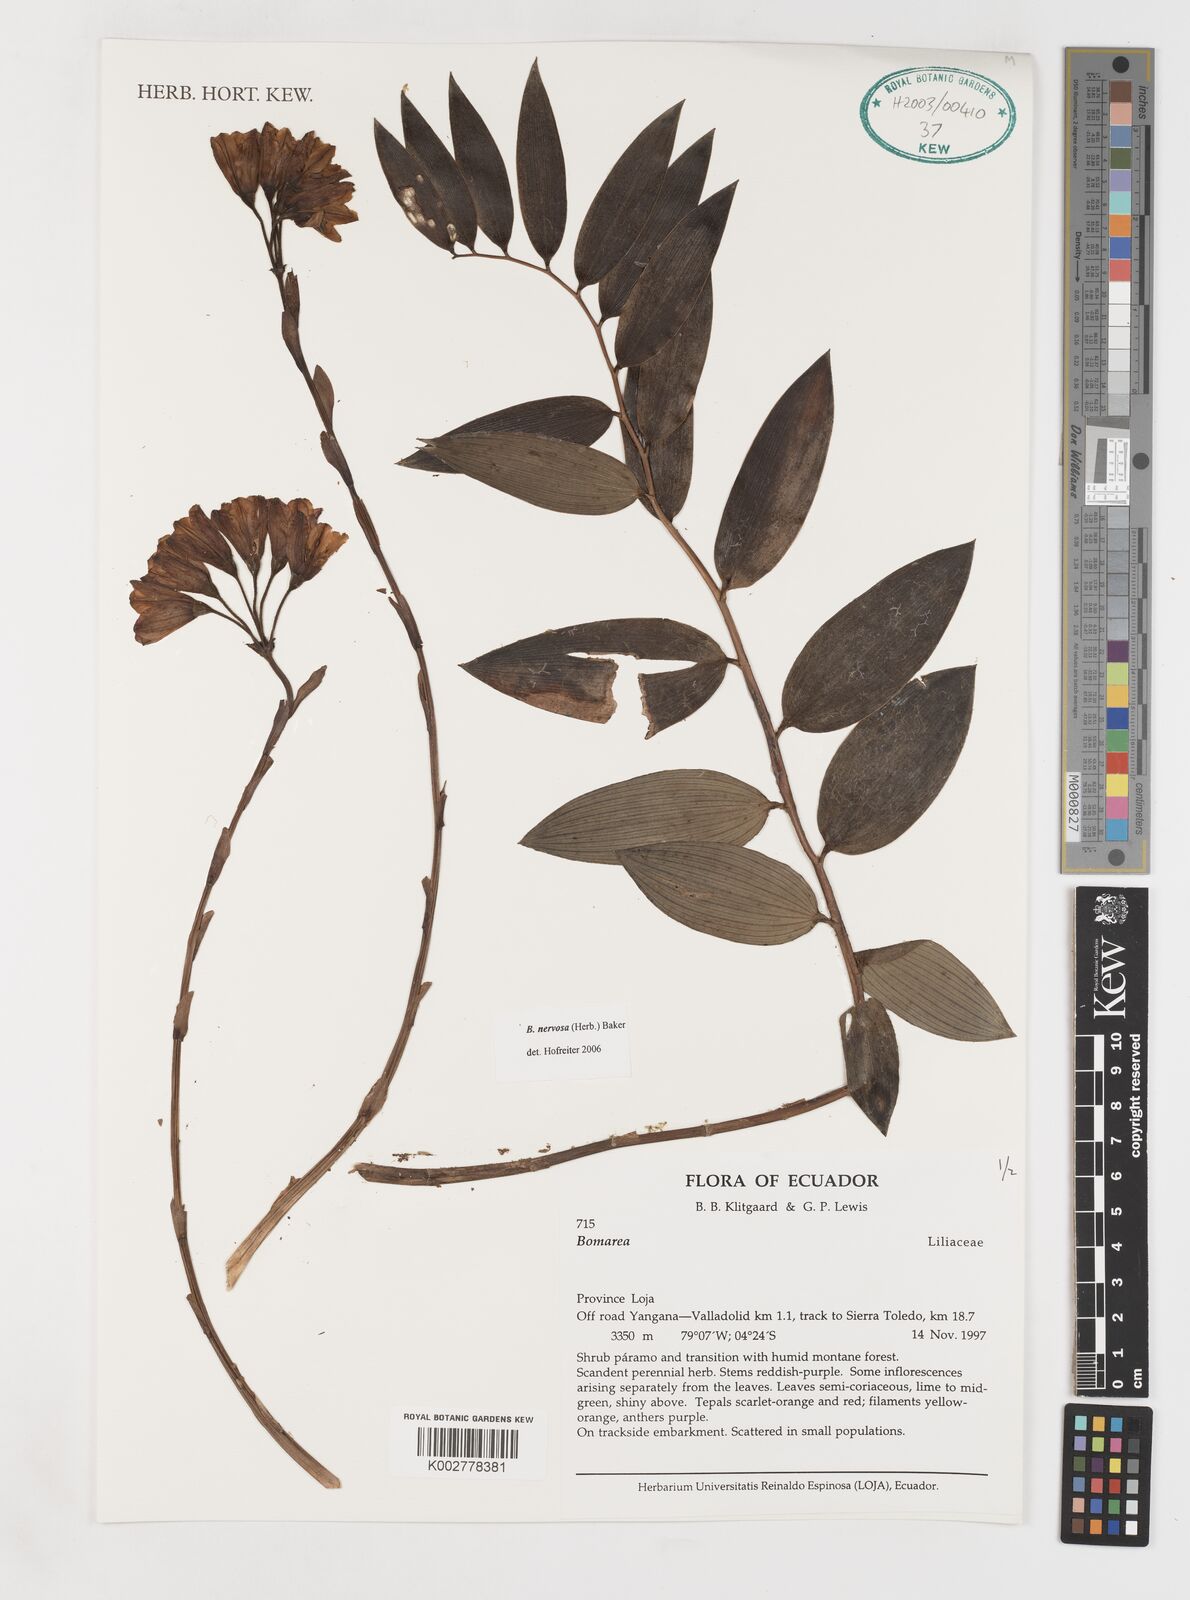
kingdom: Plantae
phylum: Tracheophyta
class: Liliopsida
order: Liliales
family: Alstroemeriaceae
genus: Bomarea
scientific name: Bomarea nervosa
